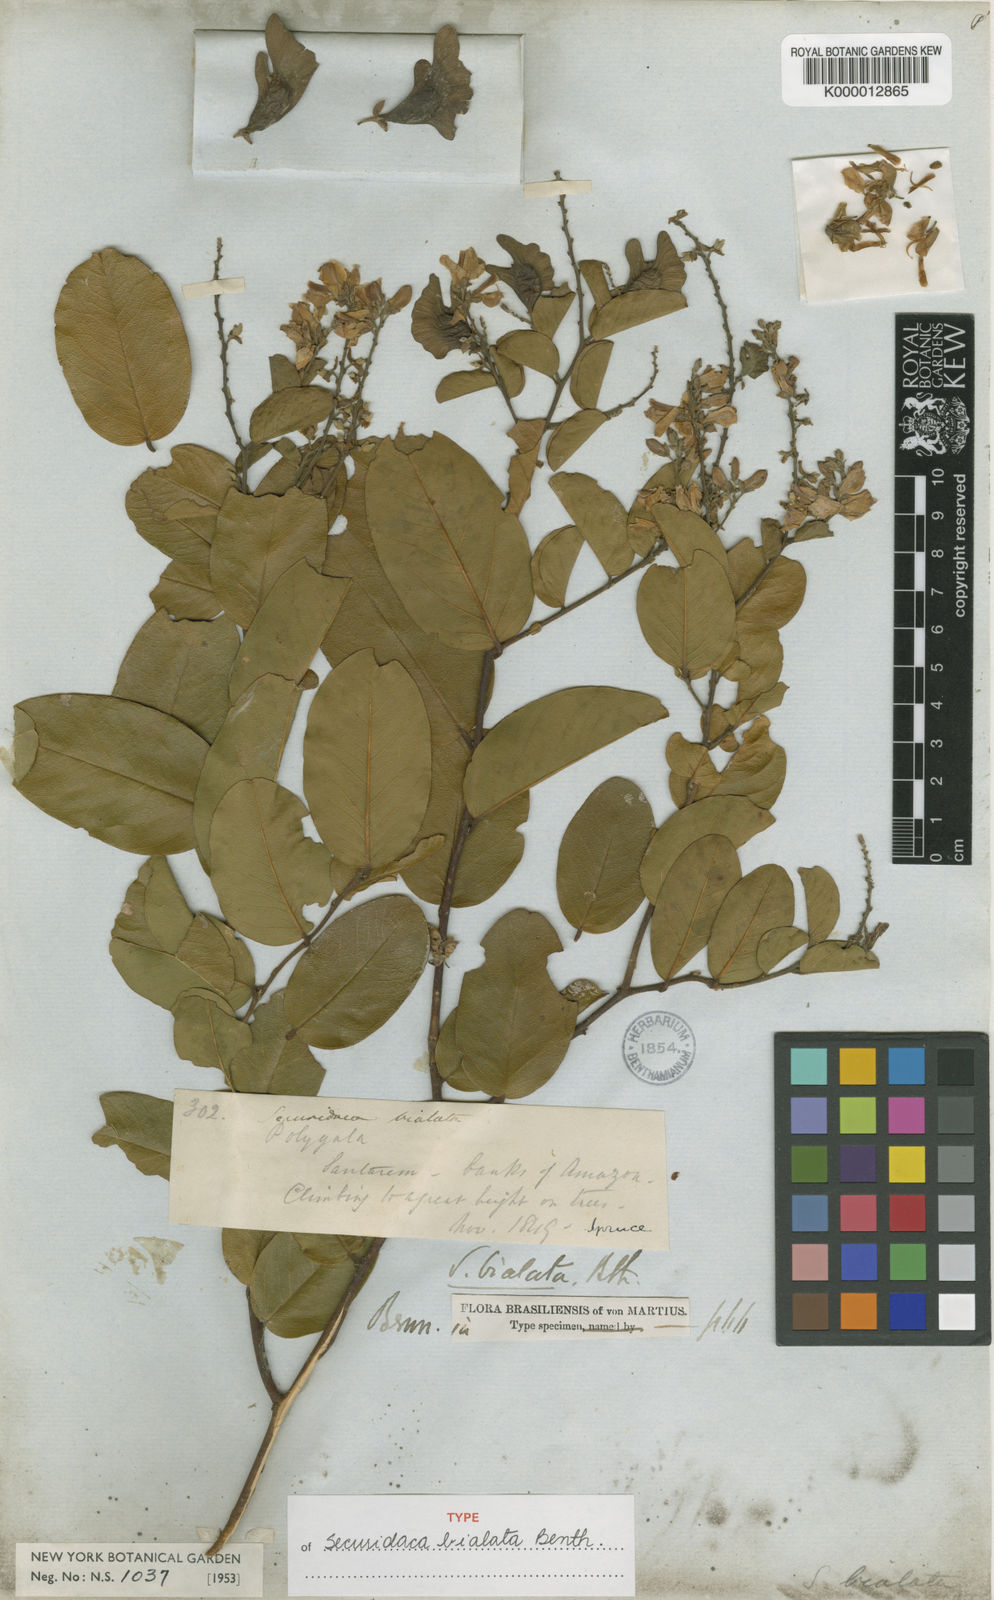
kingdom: Plantae
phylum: Tracheophyta
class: Magnoliopsida
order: Fabales
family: Polygalaceae
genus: Securidaca
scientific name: Securidaca bialata
